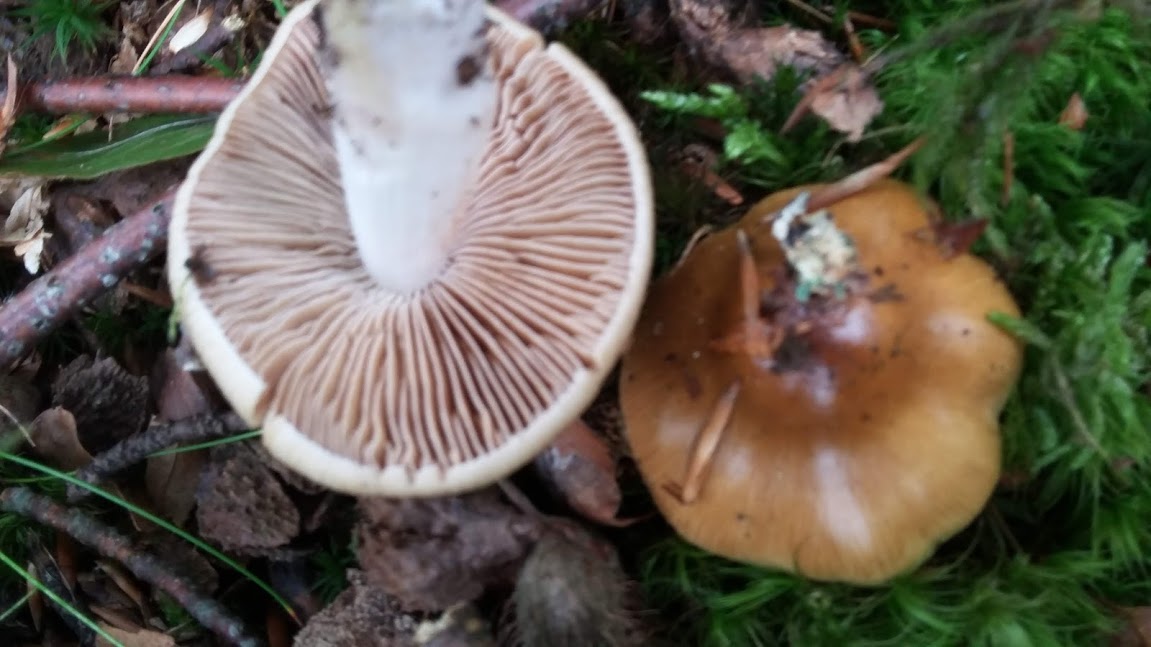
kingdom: Fungi
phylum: Basidiomycota
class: Agaricomycetes
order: Agaricales
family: Cortinariaceae
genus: Cortinarius
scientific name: Cortinarius elatior
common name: høj slørhat
